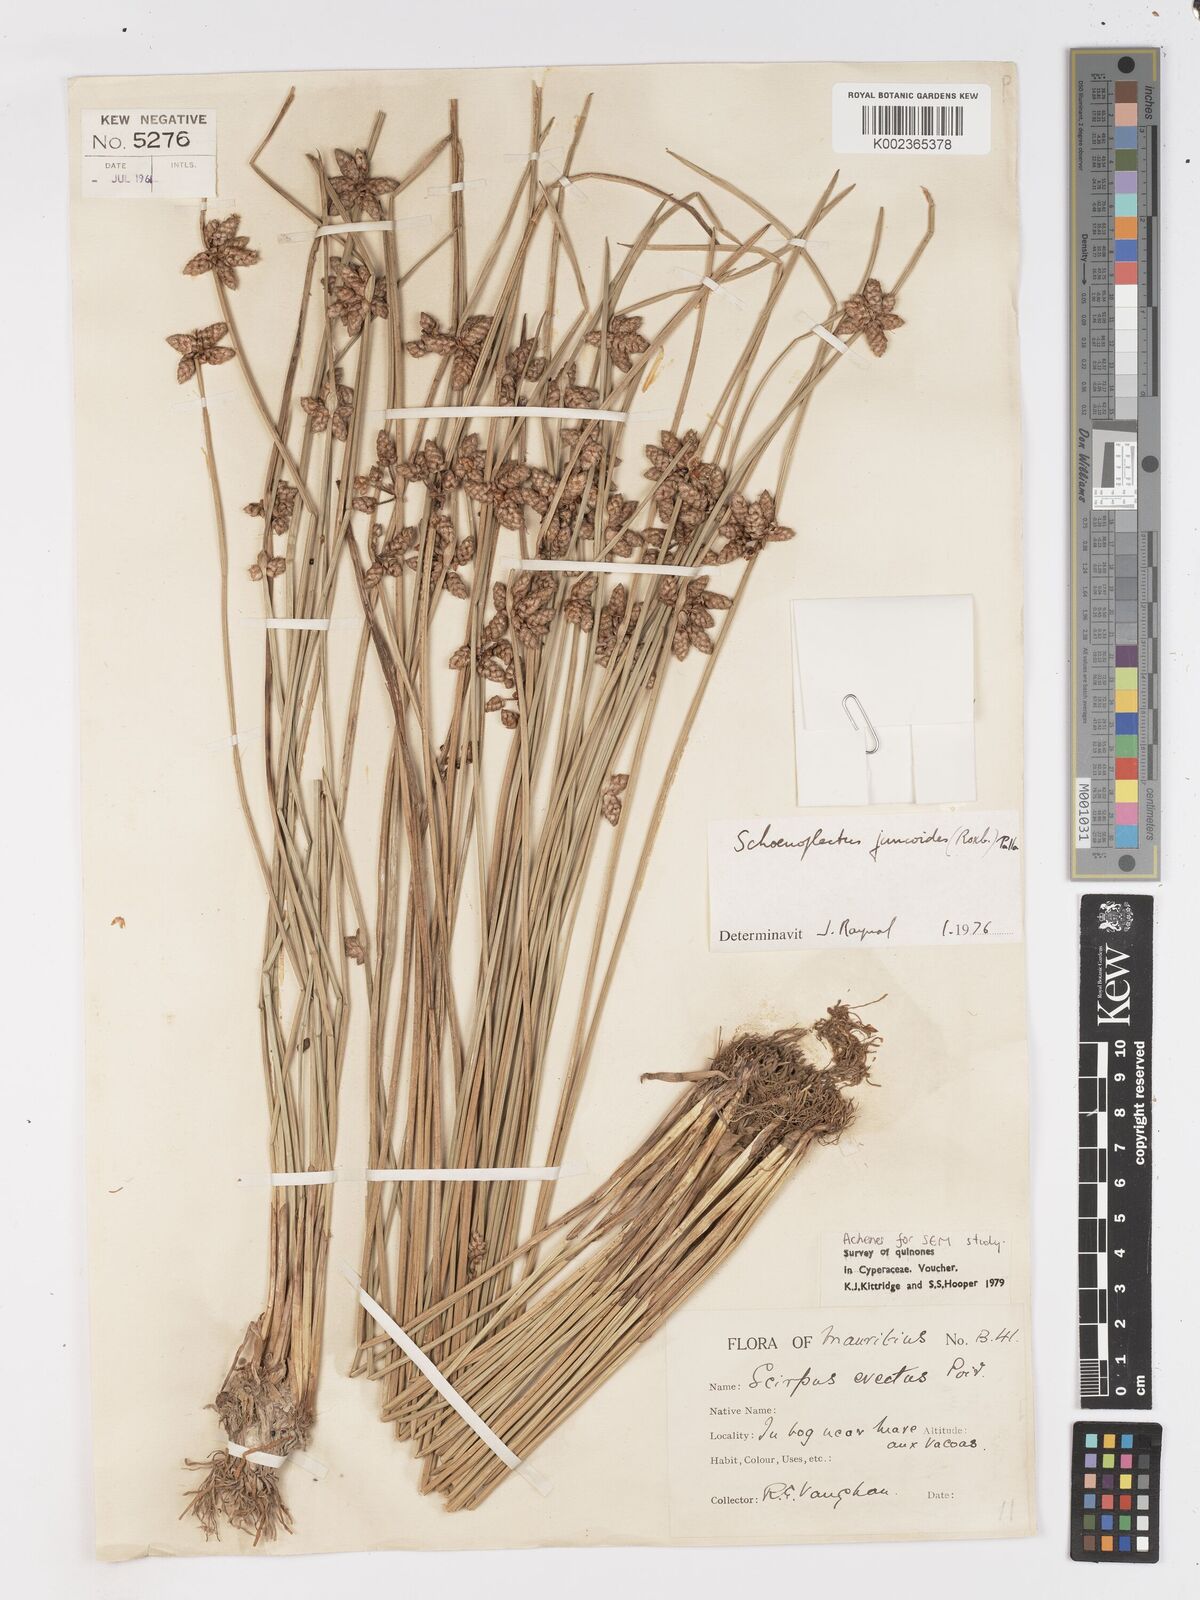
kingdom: Plantae
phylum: Tracheophyta
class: Liliopsida
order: Poales
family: Cyperaceae
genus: Schoenoplectiella
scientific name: Schoenoplectiella juncoides
